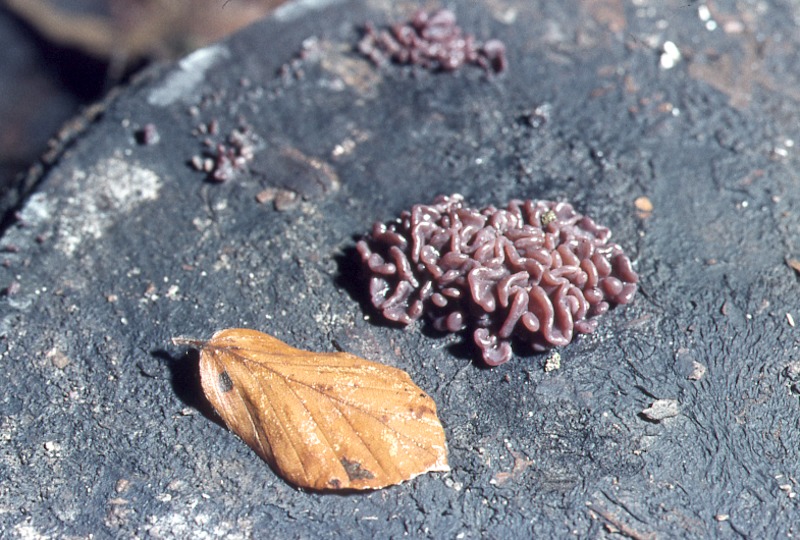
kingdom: Plantae
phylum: Tracheophyta
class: Magnoliopsida
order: Fagales
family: Fagaceae
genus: Fagus
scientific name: Fagus sylvatica
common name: Beech
